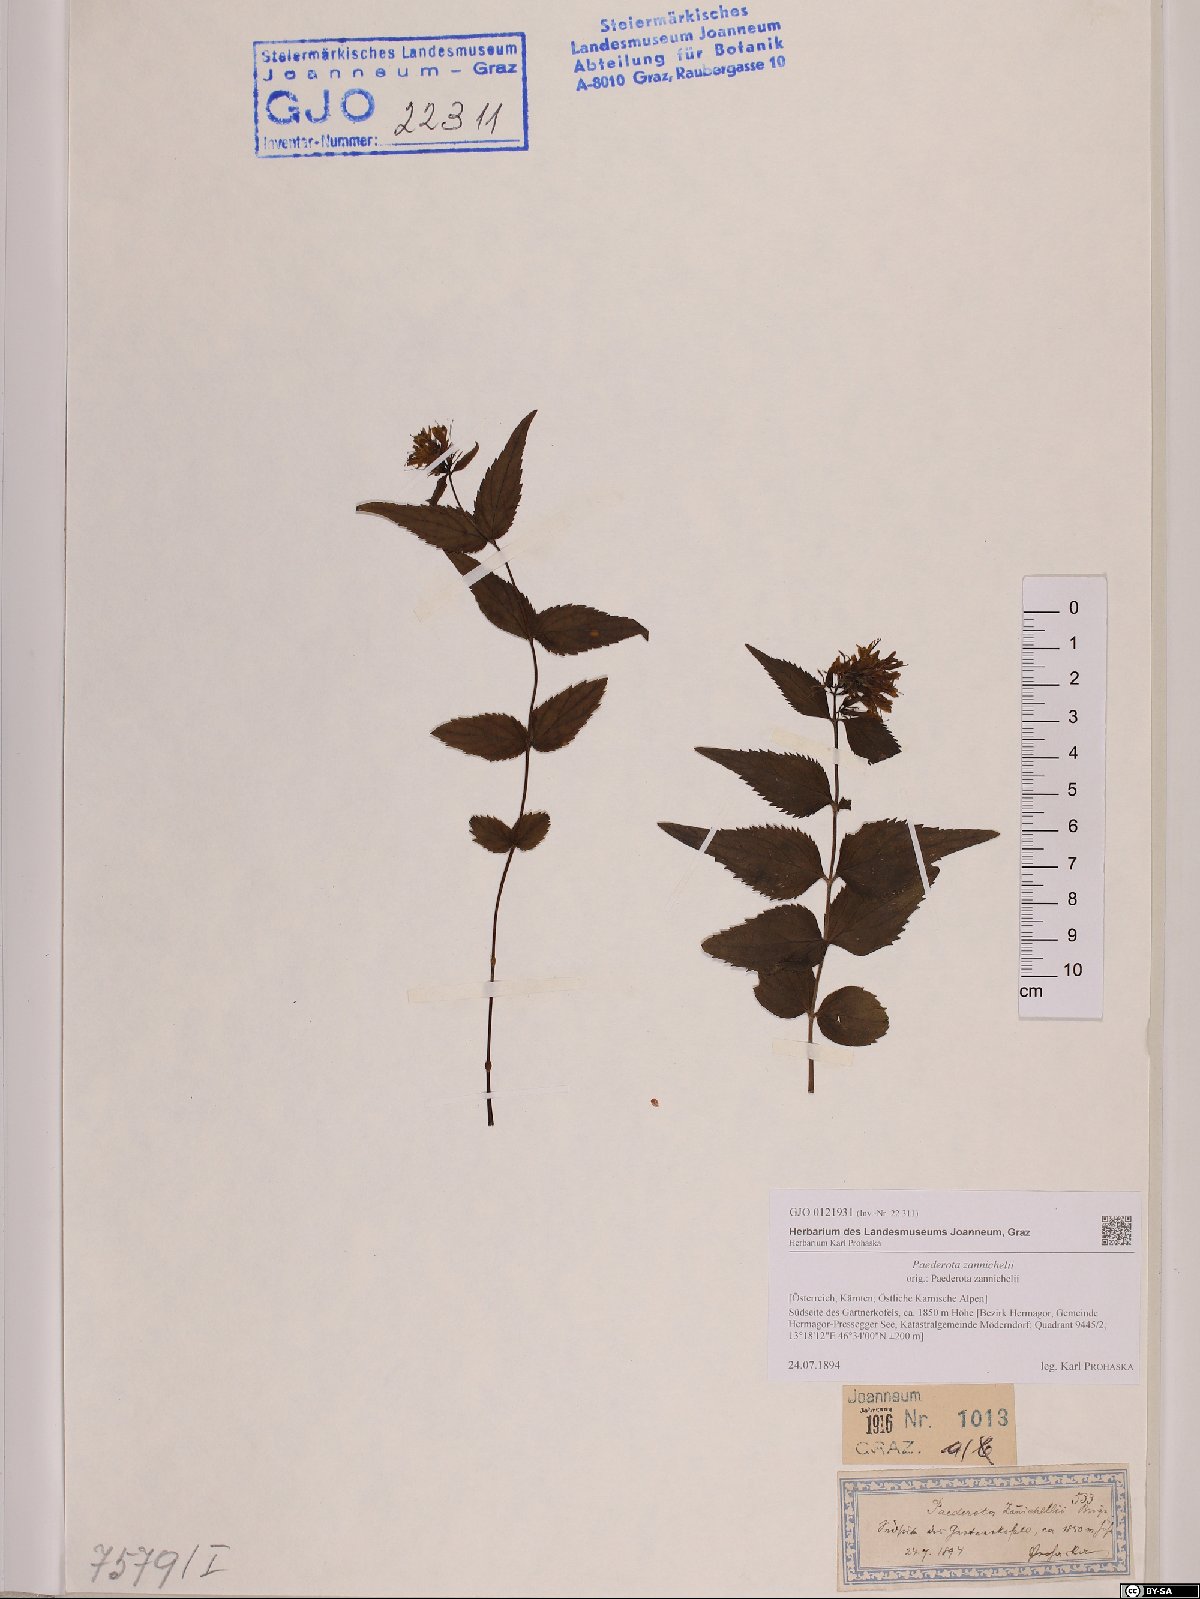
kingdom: Plantae
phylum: Tracheophyta
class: Magnoliopsida
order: Lamiales
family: Plantaginaceae
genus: Paederota
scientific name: Paederota lutea
